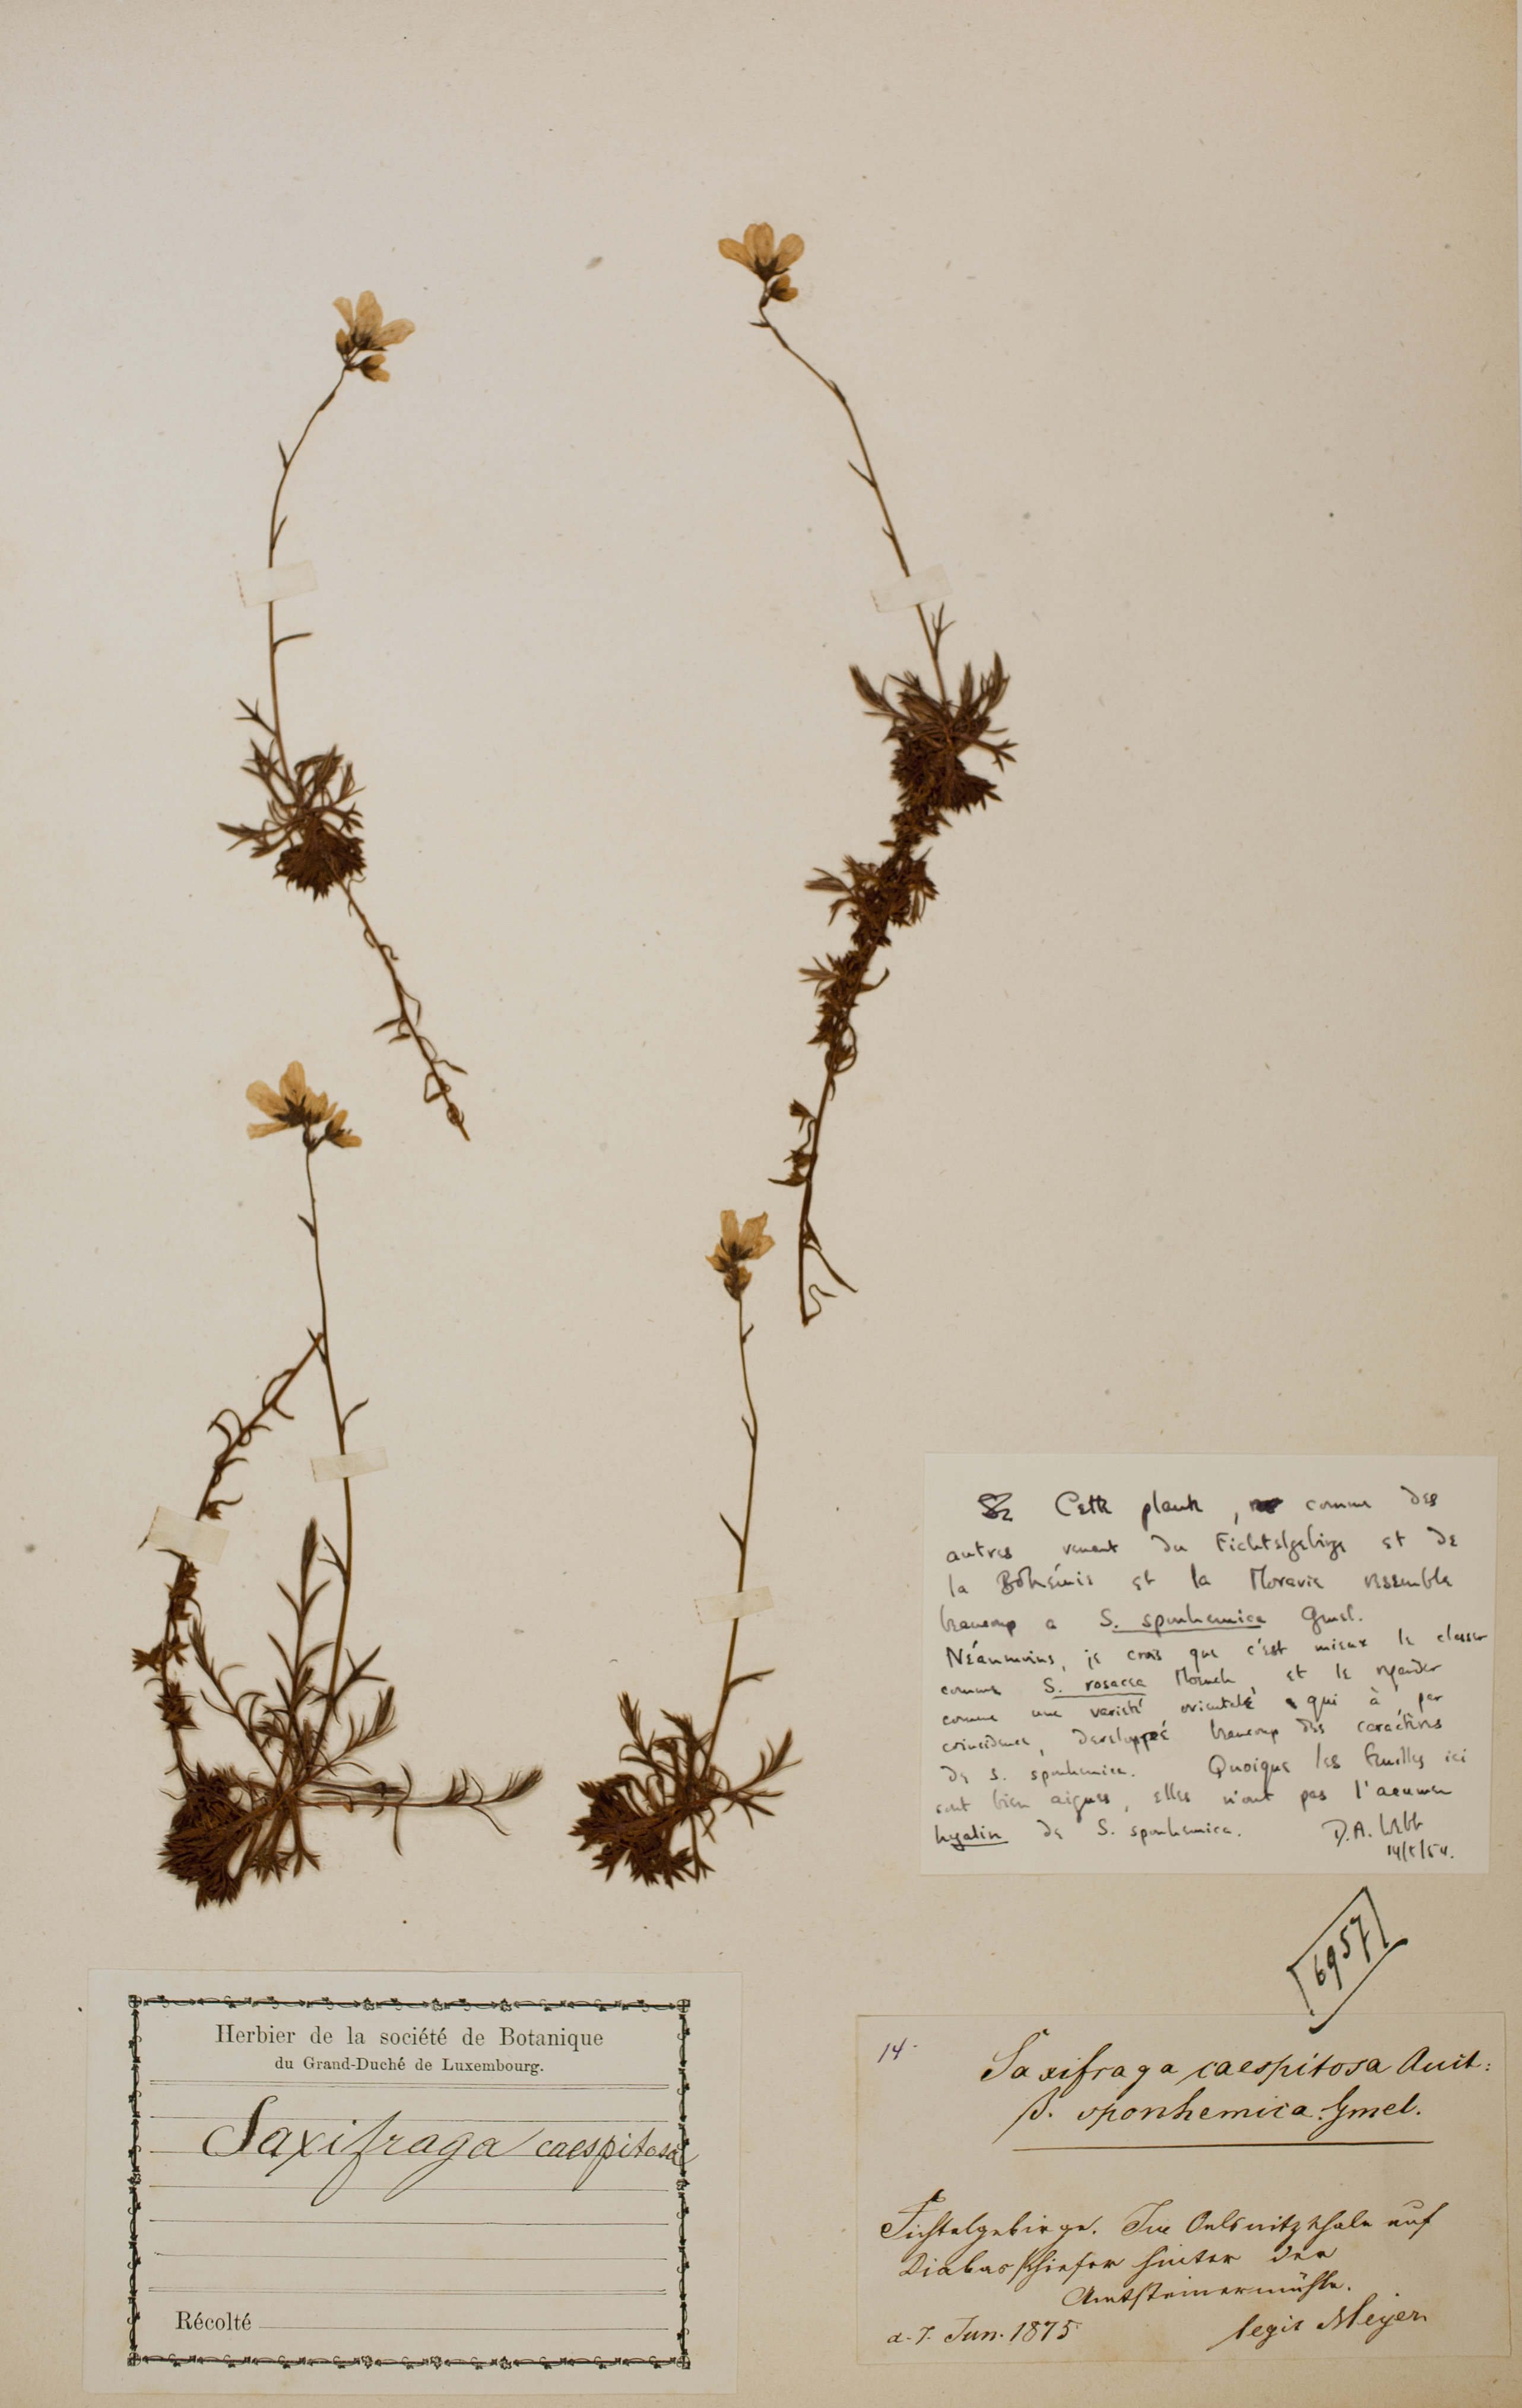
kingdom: Plantae
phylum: Tracheophyta
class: Magnoliopsida
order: Saxifragales
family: Saxifragaceae
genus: Saxifraga
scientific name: Saxifraga rosacea
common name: Irish saxifrage
